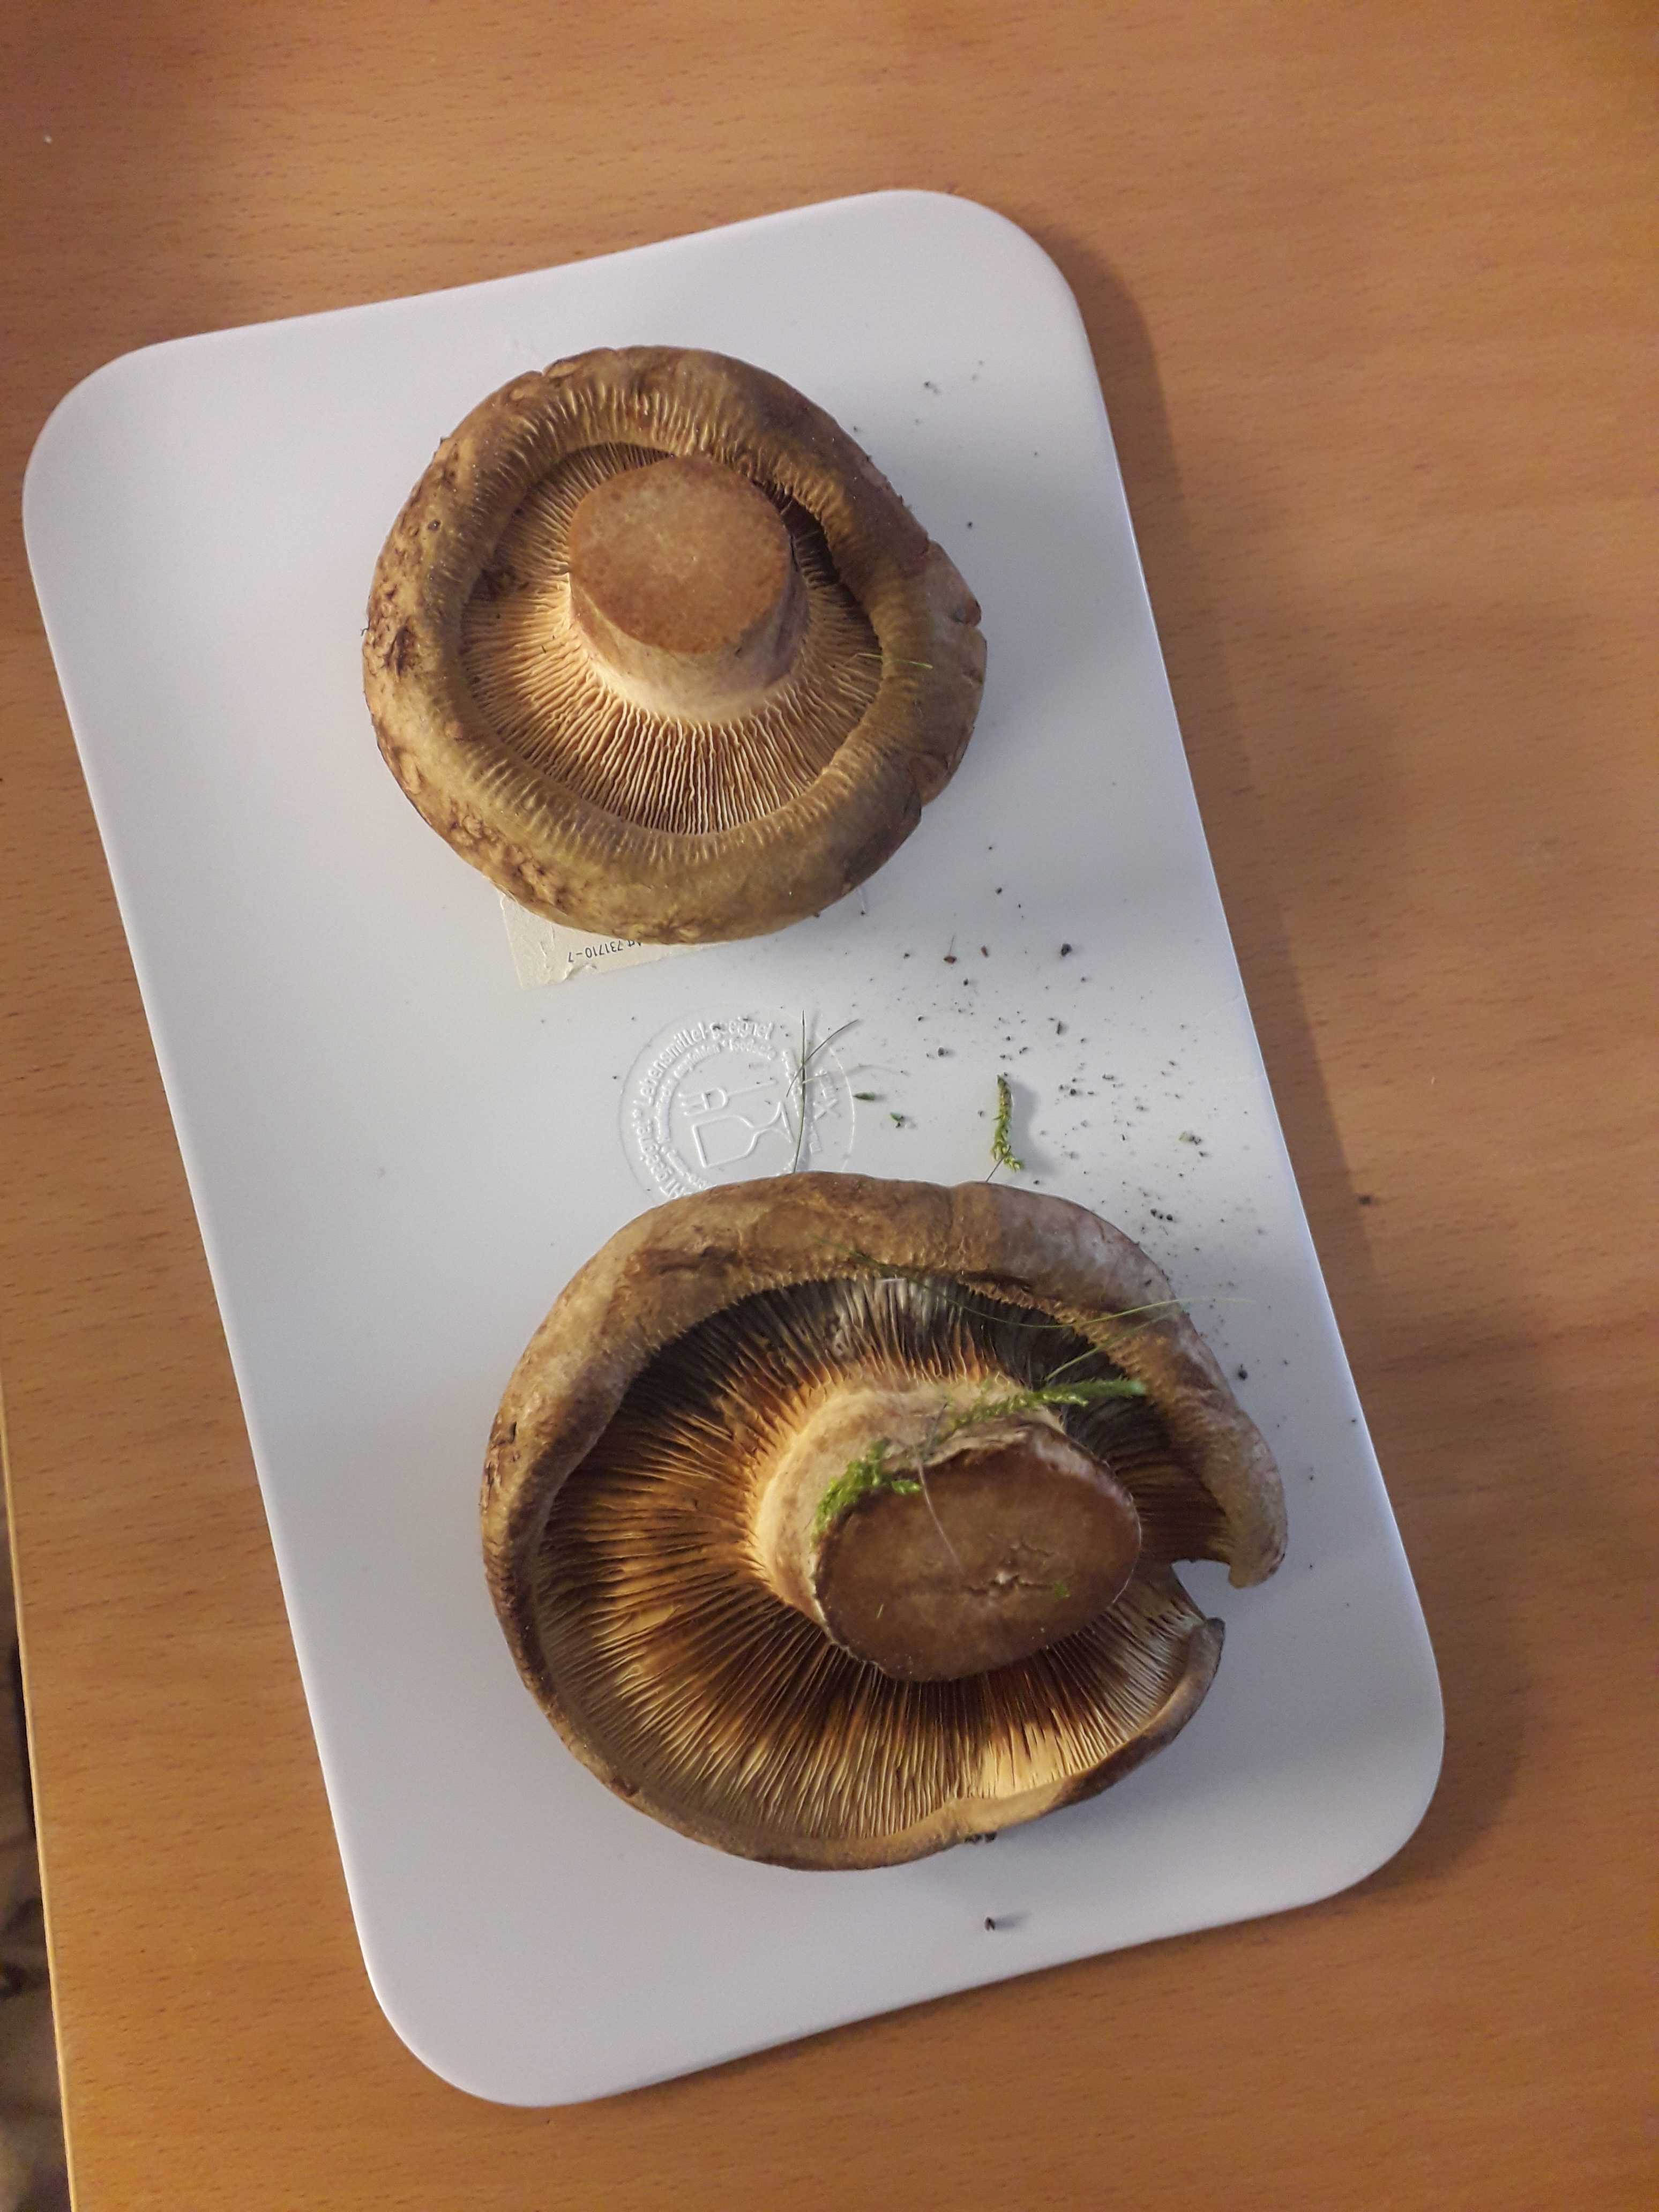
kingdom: Fungi
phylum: Basidiomycota
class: Agaricomycetes
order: Boletales
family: Paxillaceae
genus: Paxillus
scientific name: Paxillus
